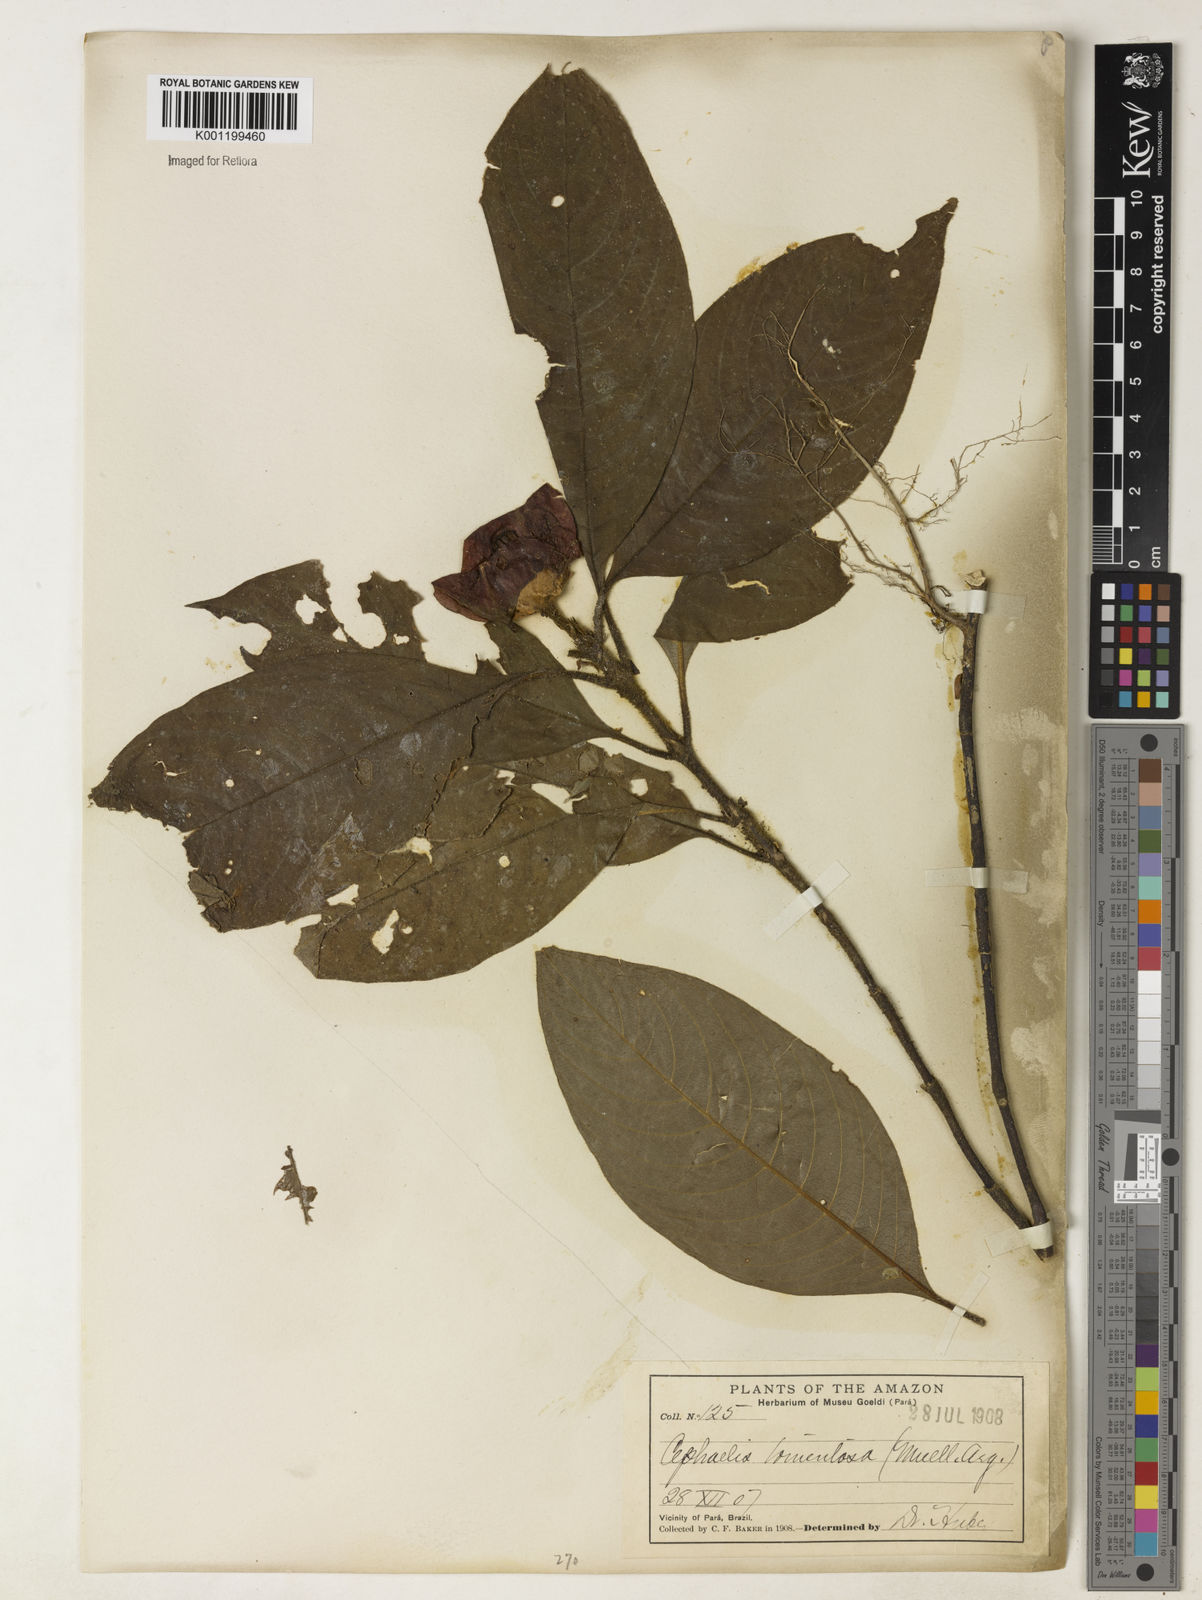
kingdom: Plantae
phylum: Tracheophyta
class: Magnoliopsida
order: Gentianales
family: Rubiaceae
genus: Psychotria
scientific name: Psychotria
